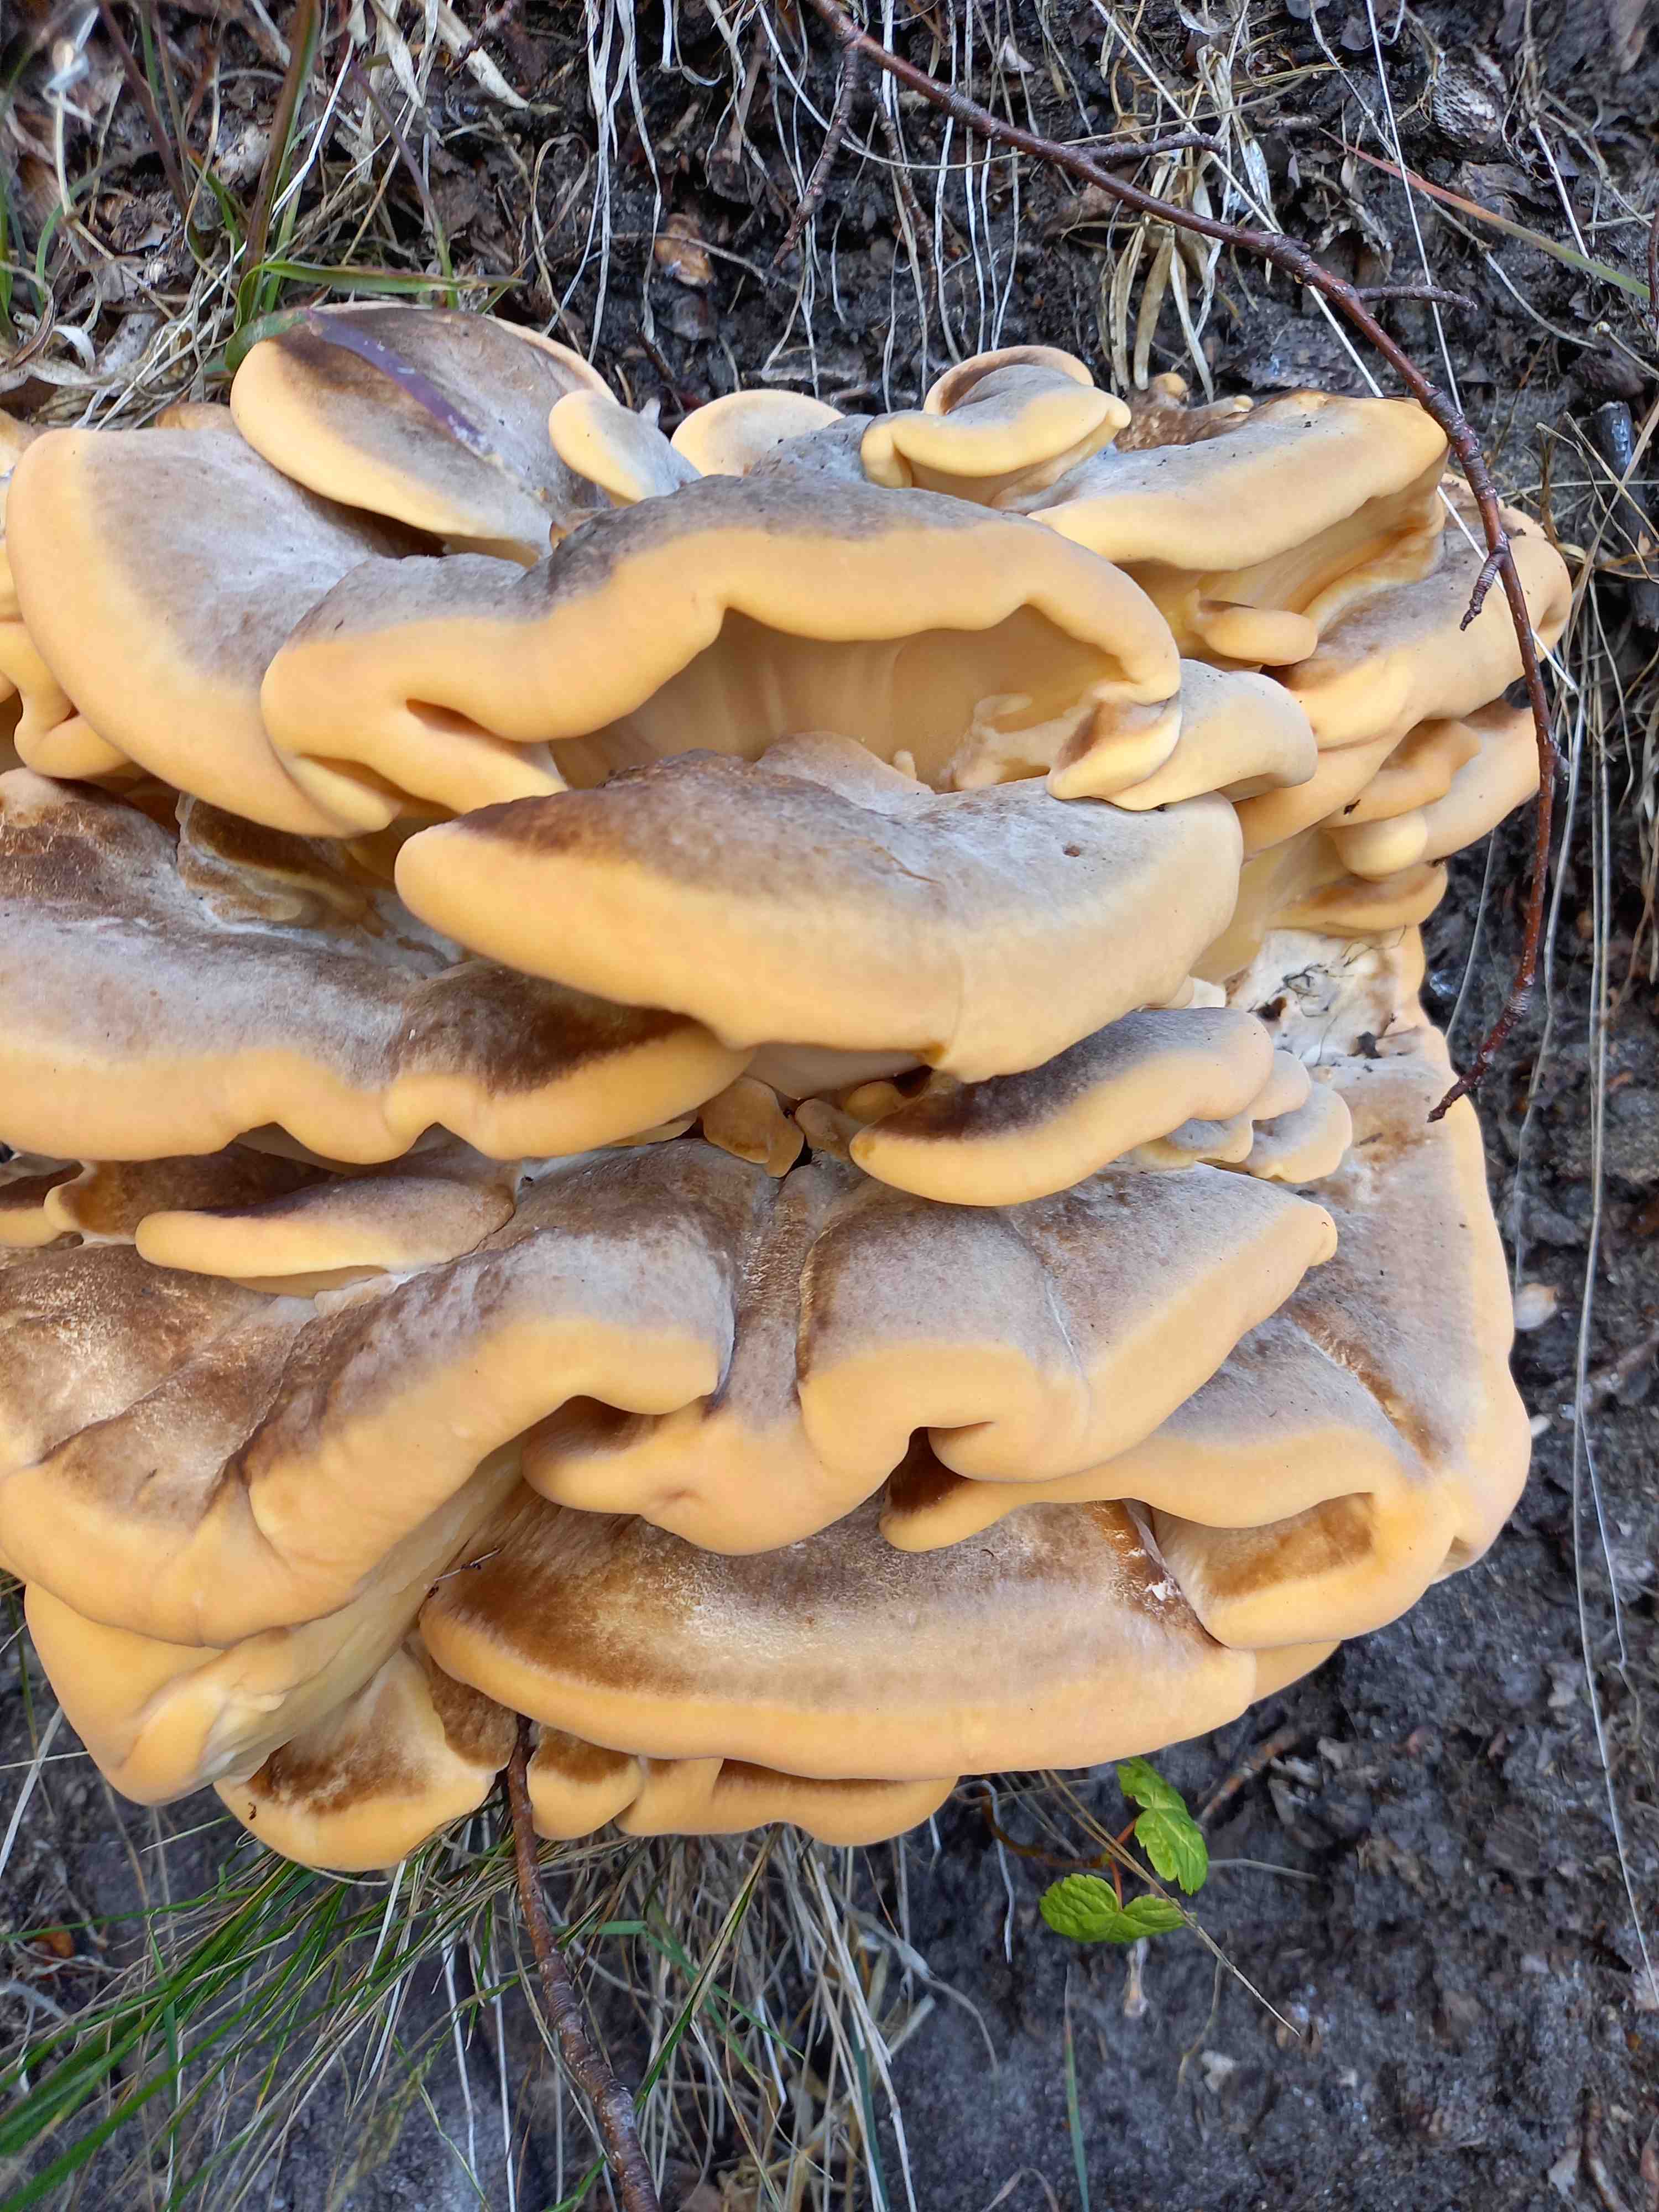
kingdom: Fungi
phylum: Basidiomycota
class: Agaricomycetes
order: Polyporales
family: Meripilaceae
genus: Meripilus
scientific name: Meripilus giganteus
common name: kæmpeporesvamp
